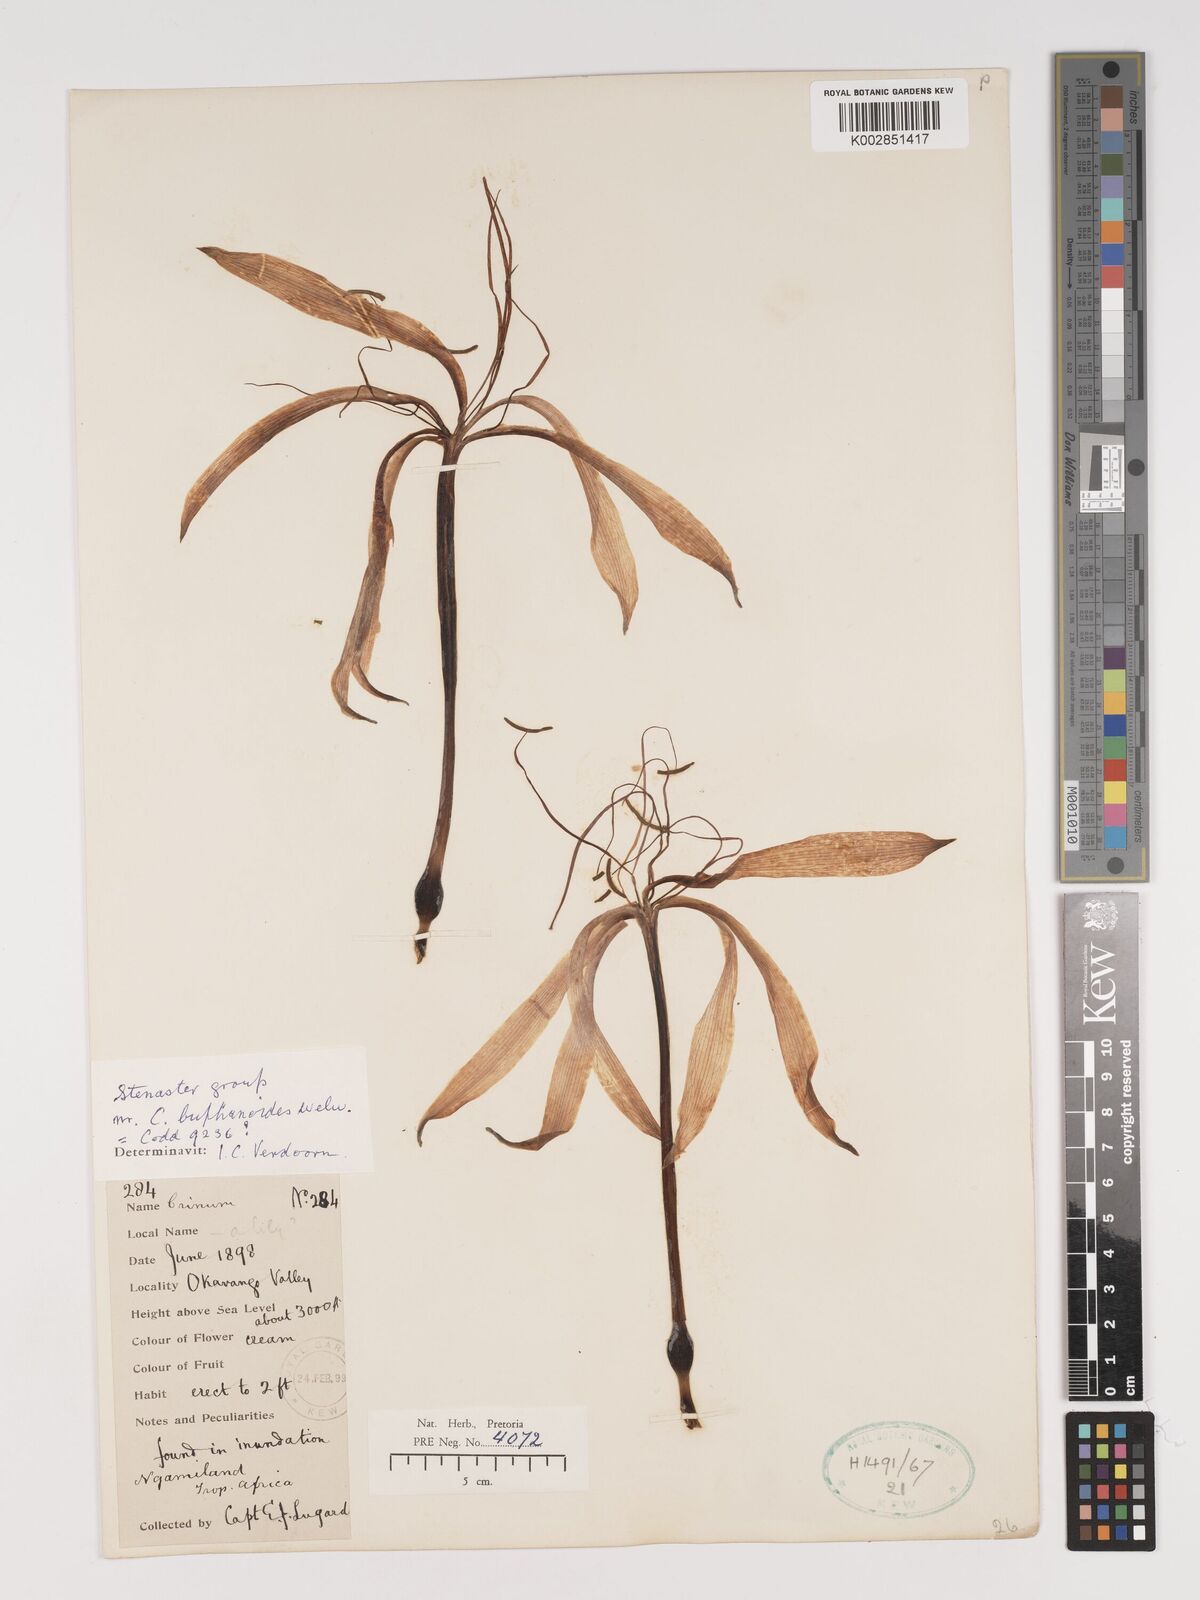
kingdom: Plantae
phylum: Tracheophyta
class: Liliopsida
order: Asparagales
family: Amaryllidaceae
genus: Crinum
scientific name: Crinum buphanoides
